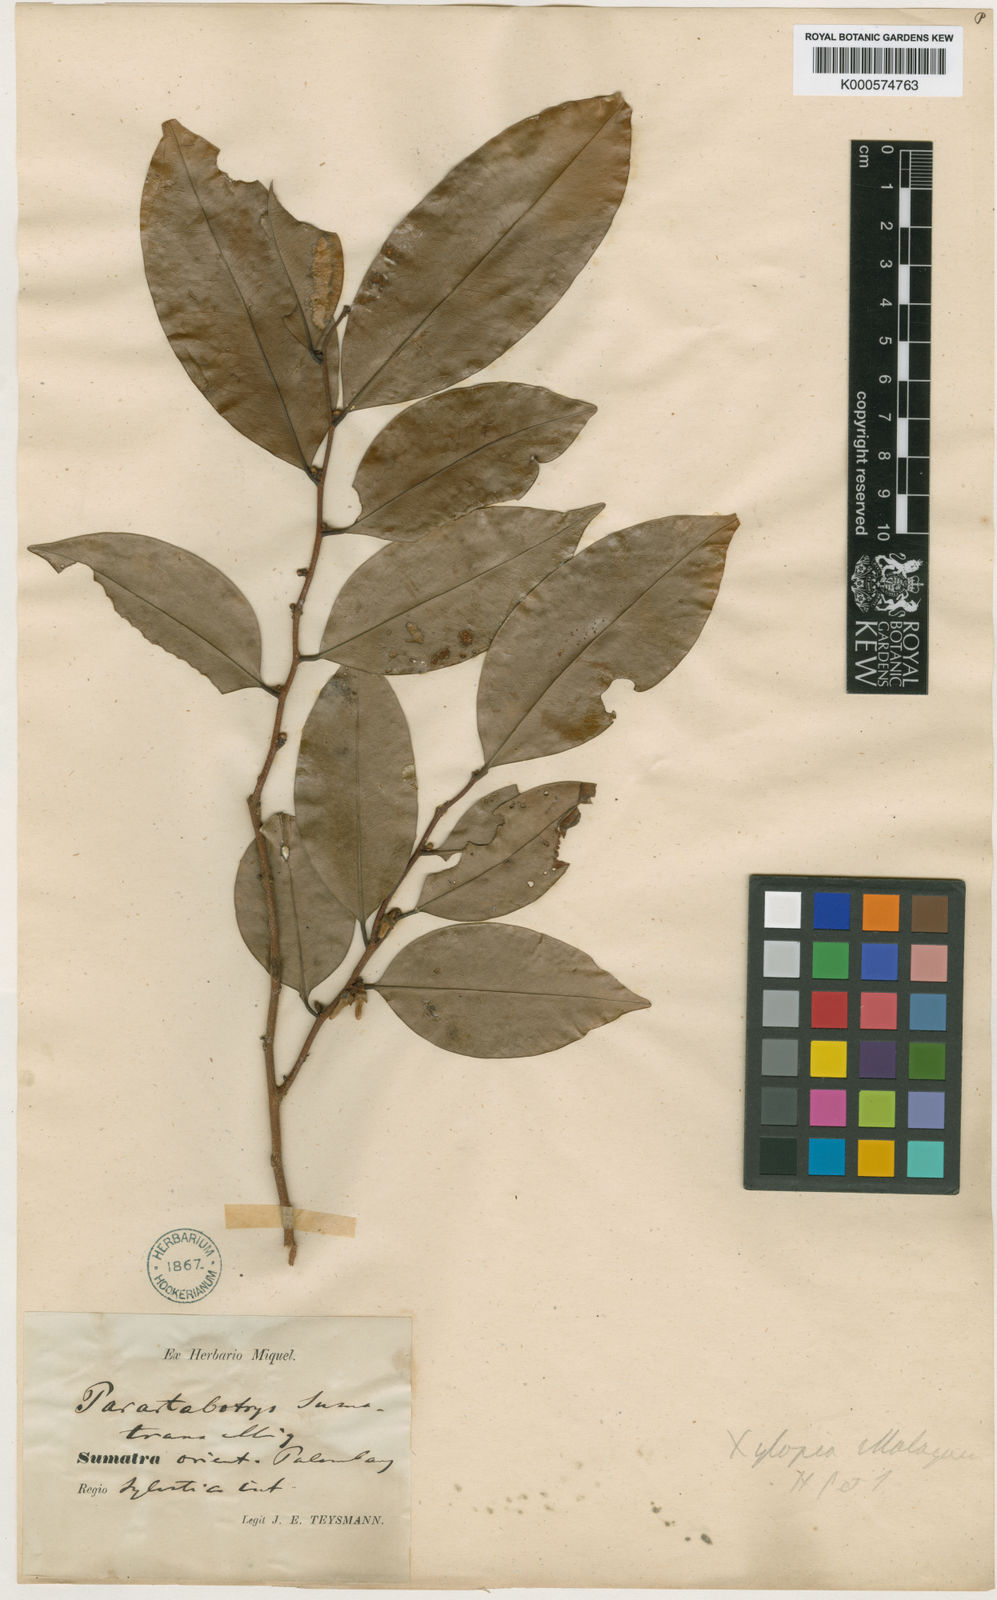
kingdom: Plantae
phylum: Tracheophyta
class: Magnoliopsida
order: Magnoliales
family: Annonaceae
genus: Xylopia
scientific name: Xylopia malayana
